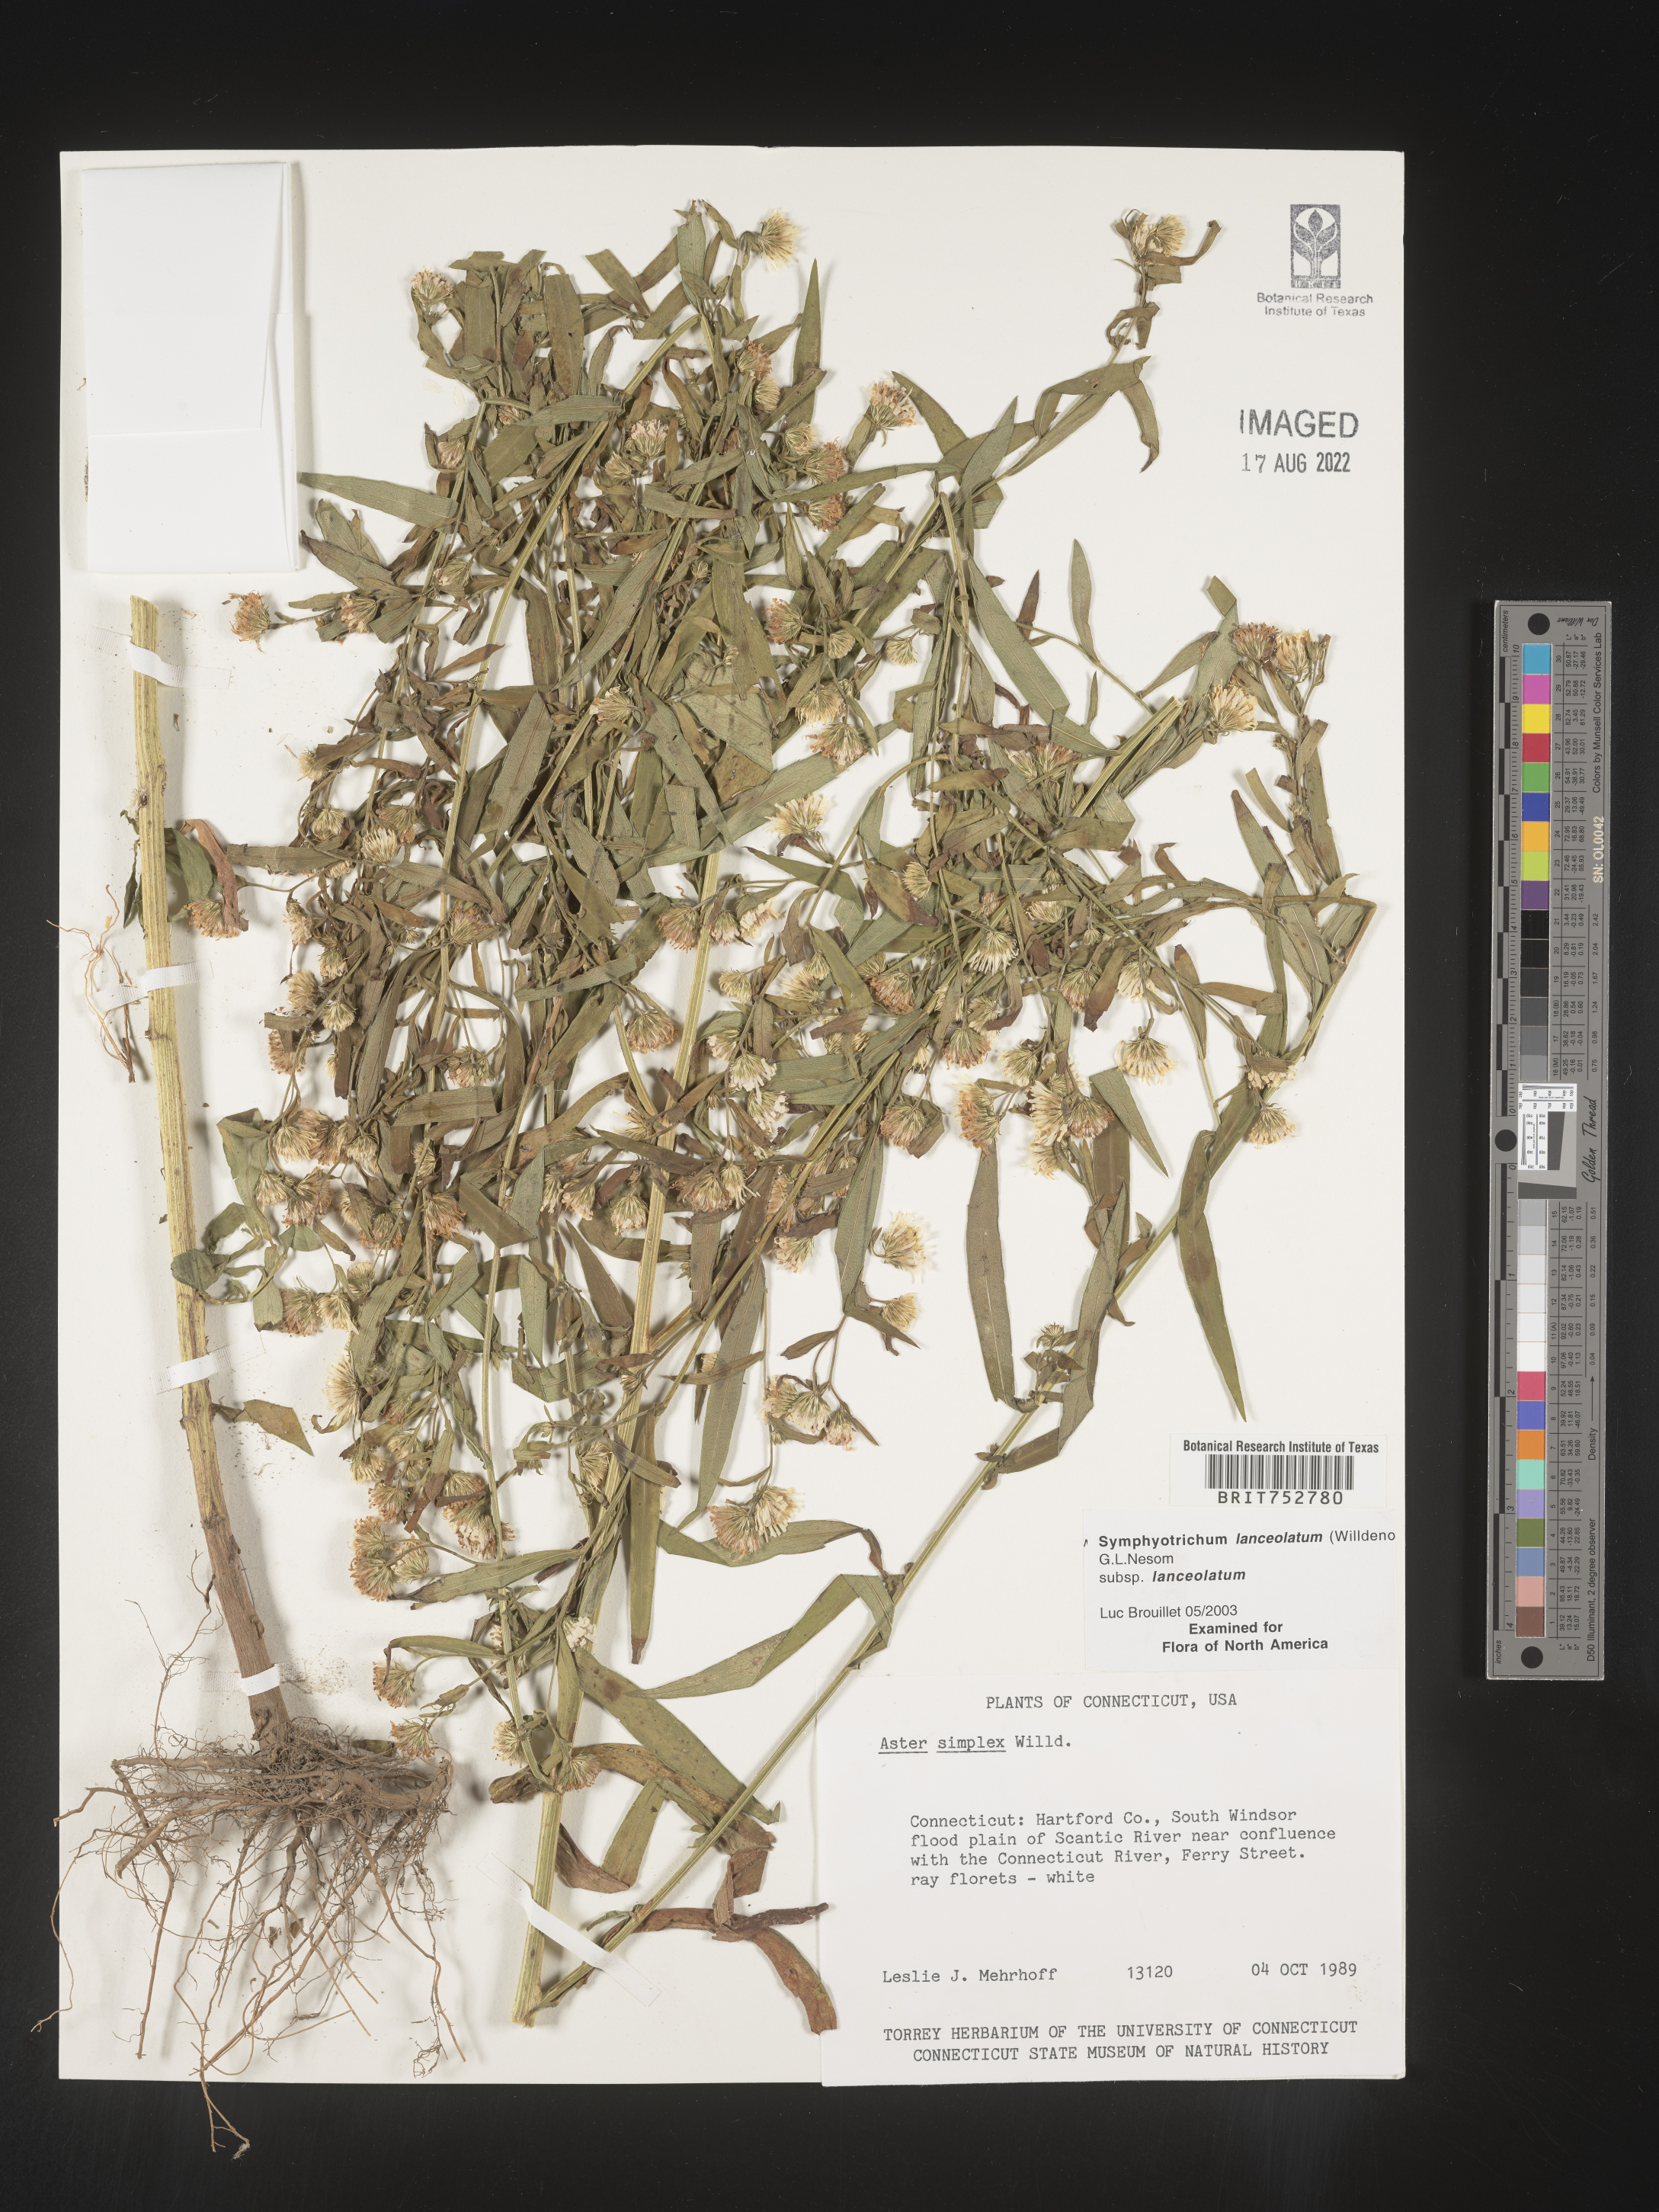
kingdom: Plantae
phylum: Tracheophyta
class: Magnoliopsida
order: Asterales
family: Asteraceae
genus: Symphyotrichum
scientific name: Symphyotrichum lanceolatum
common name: Panicled aster
